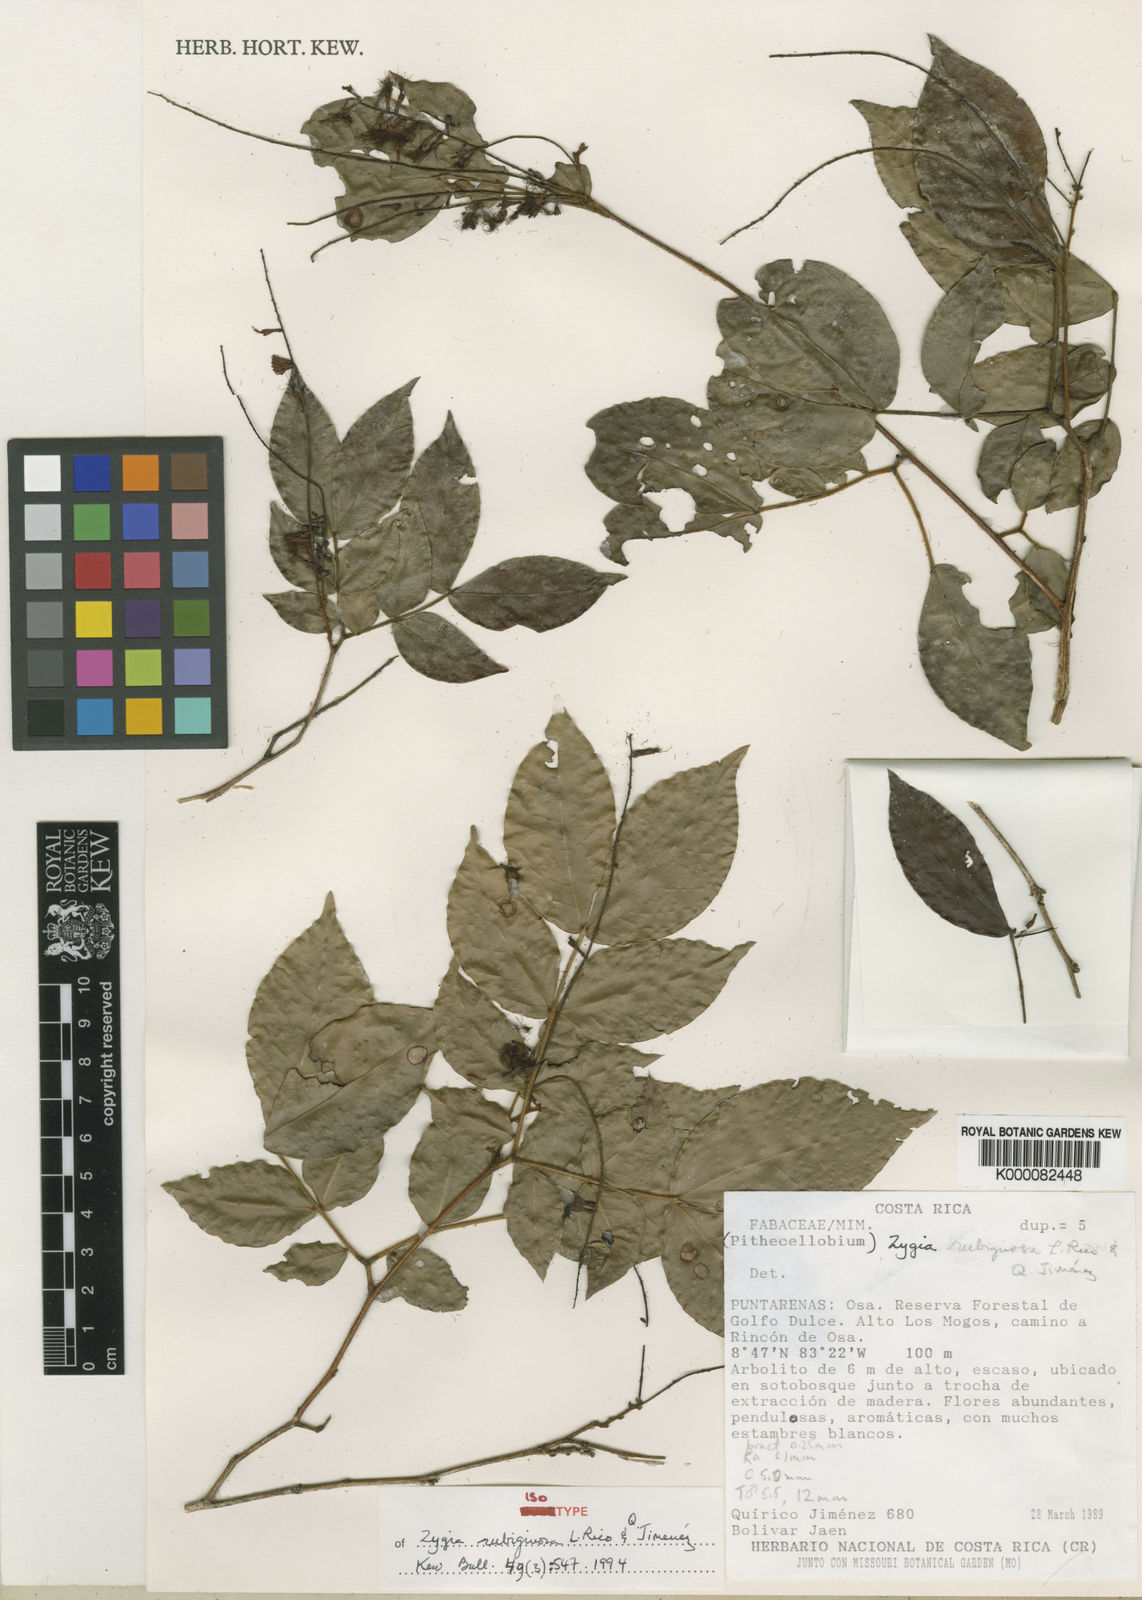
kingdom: Plantae
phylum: Tracheophyta
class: Magnoliopsida
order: Fabales
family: Fabaceae
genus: Zygia
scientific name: Zygia
